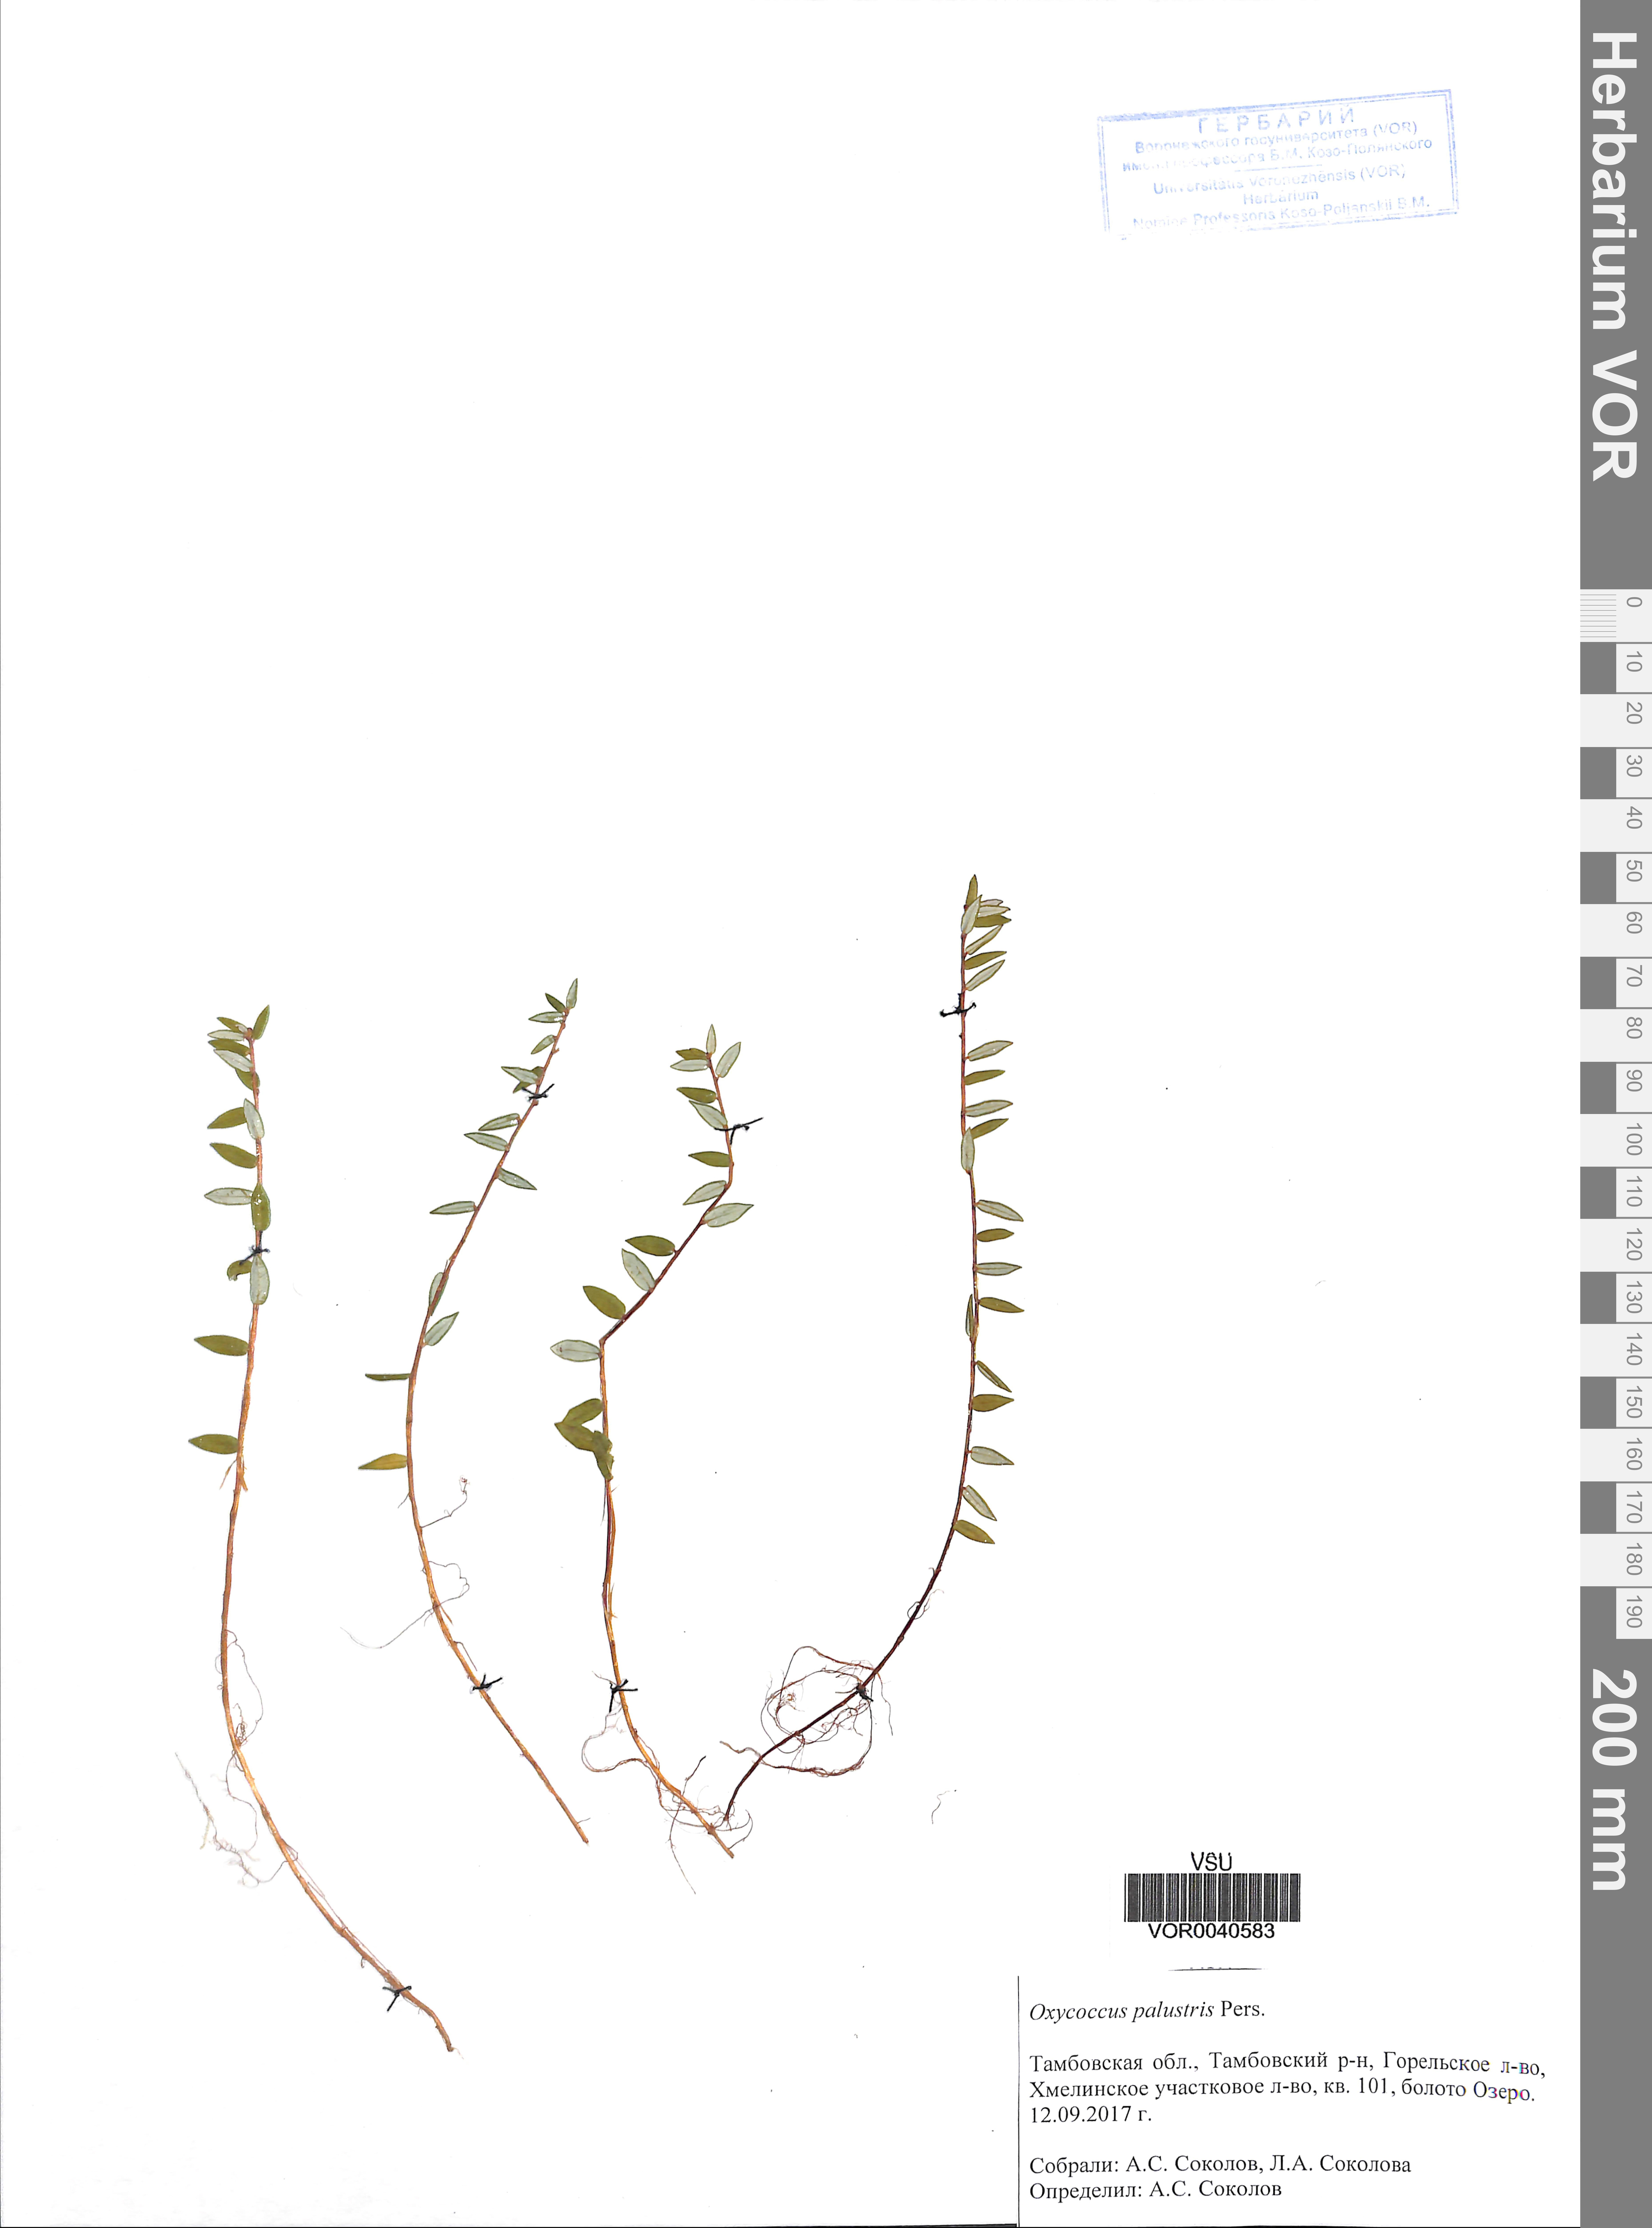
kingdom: Plantae
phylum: Tracheophyta
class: Magnoliopsida
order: Ericales
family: Ericaceae
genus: Vaccinium
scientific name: Vaccinium oxycoccos
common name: Cranberry
